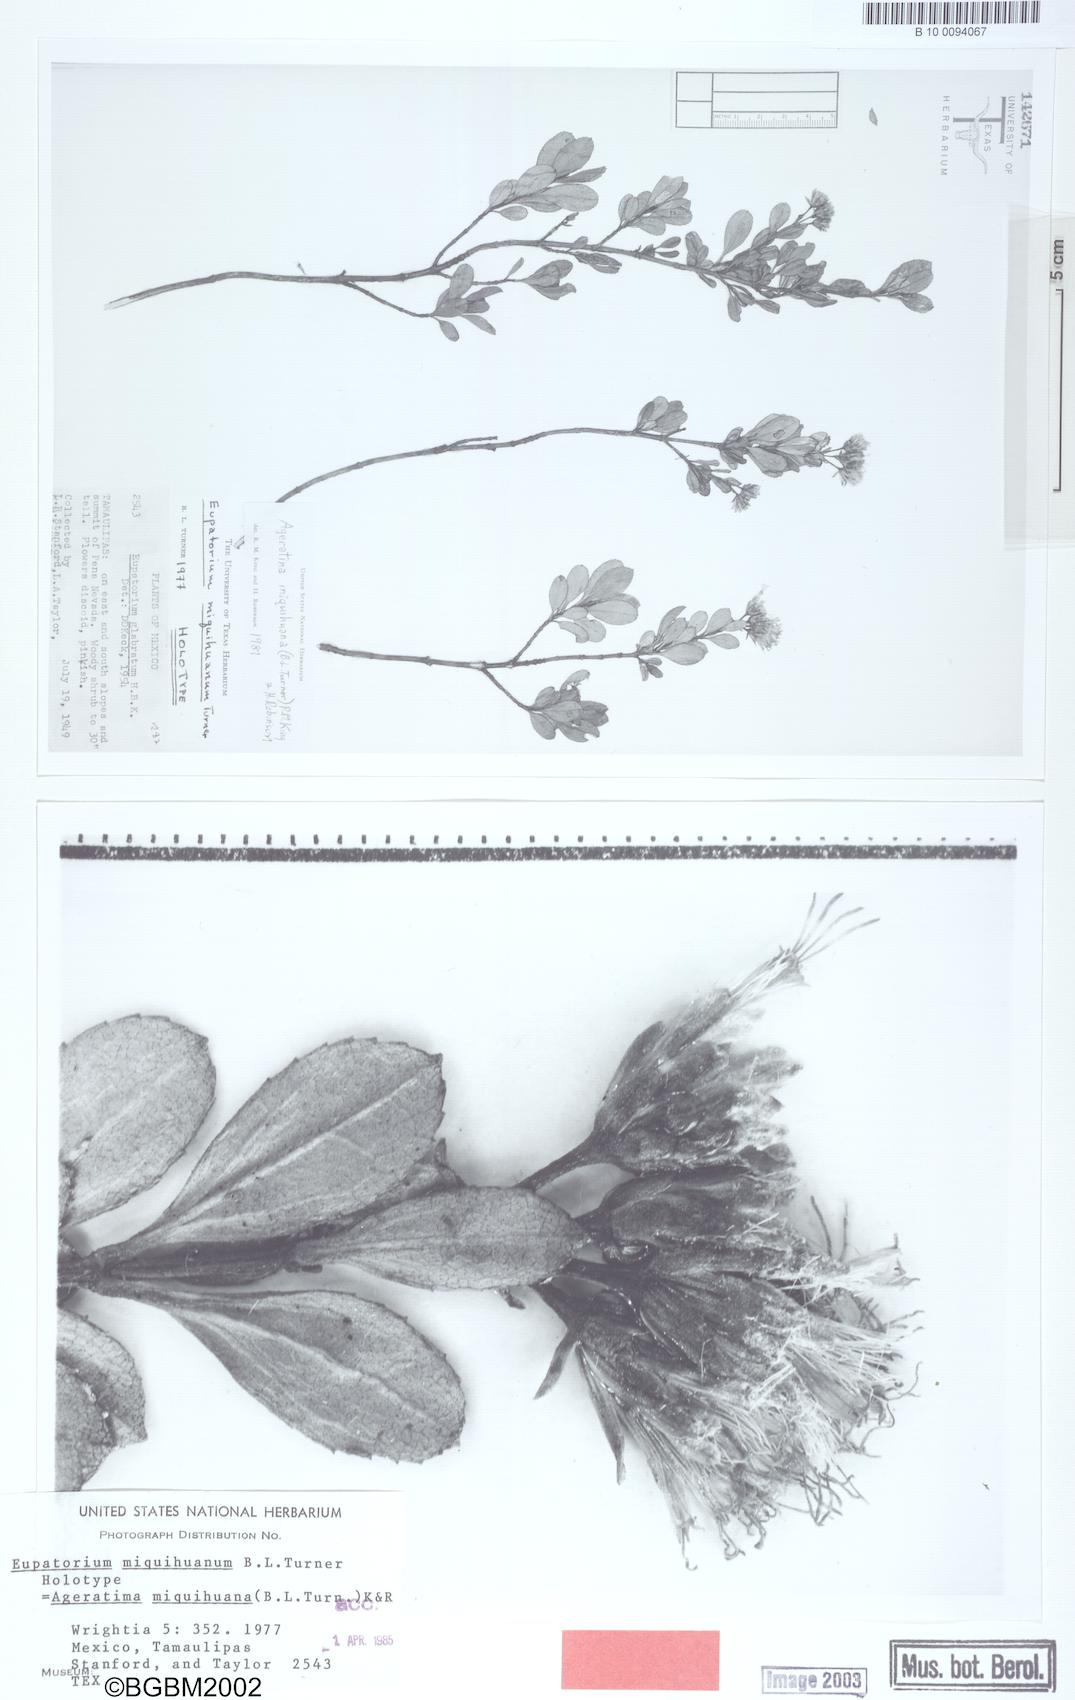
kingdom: Plantae
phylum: Tracheophyta
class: Magnoliopsida
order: Asterales
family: Asteraceae
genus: Ageratina
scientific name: Ageratina miquihuana
